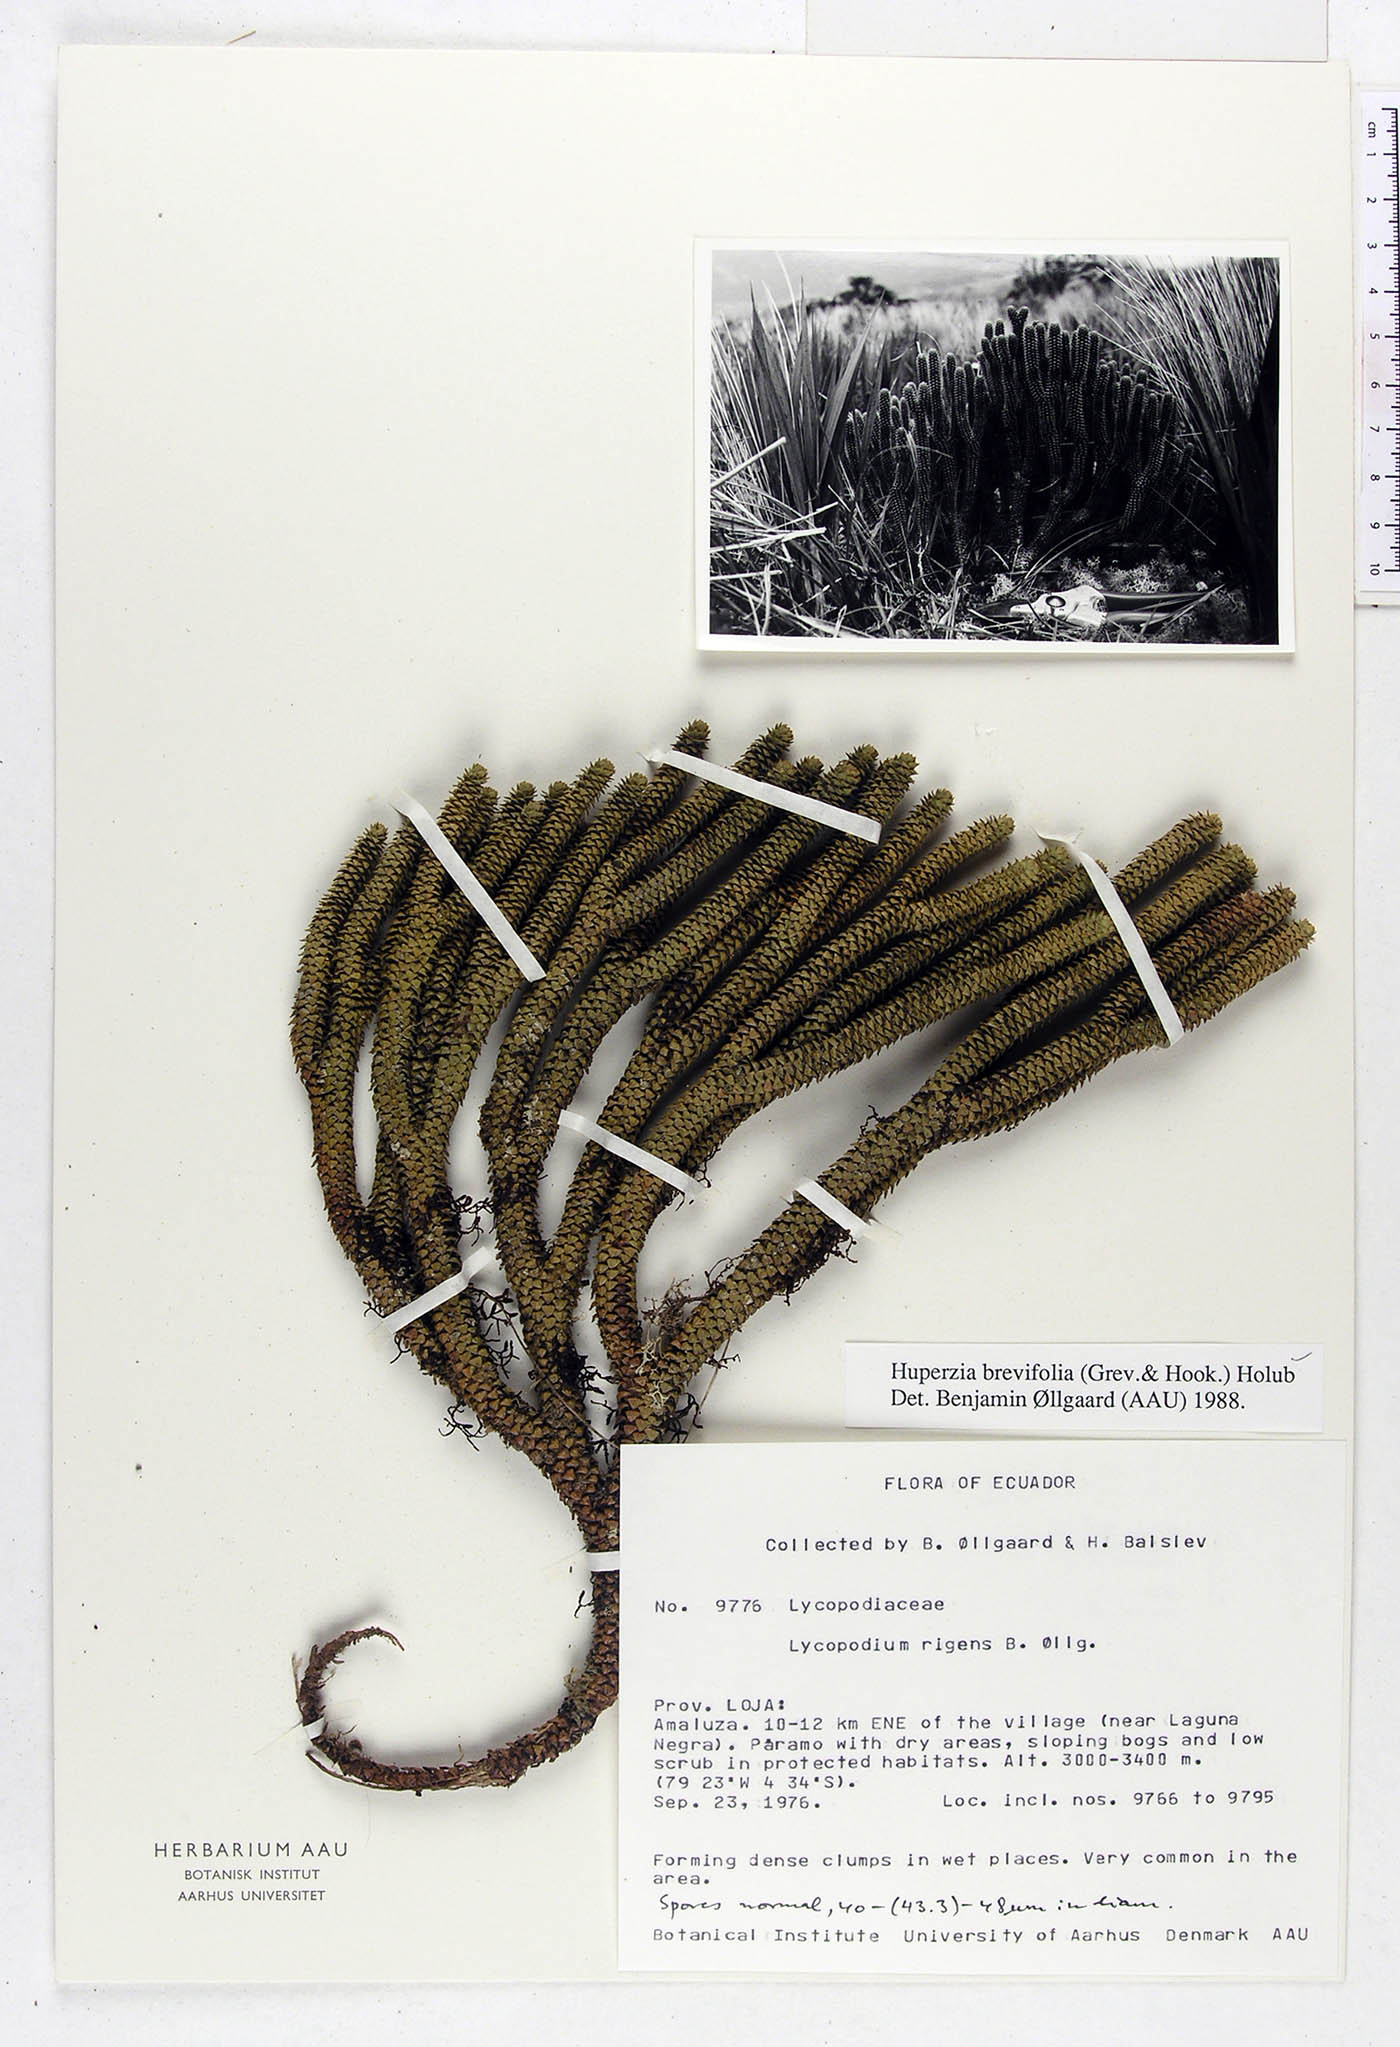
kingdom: Plantae
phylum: Tracheophyta
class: Lycopodiopsida
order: Lycopodiales
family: Lycopodiaceae
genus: Phlegmariurus
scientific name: Phlegmariurus brevifolius
